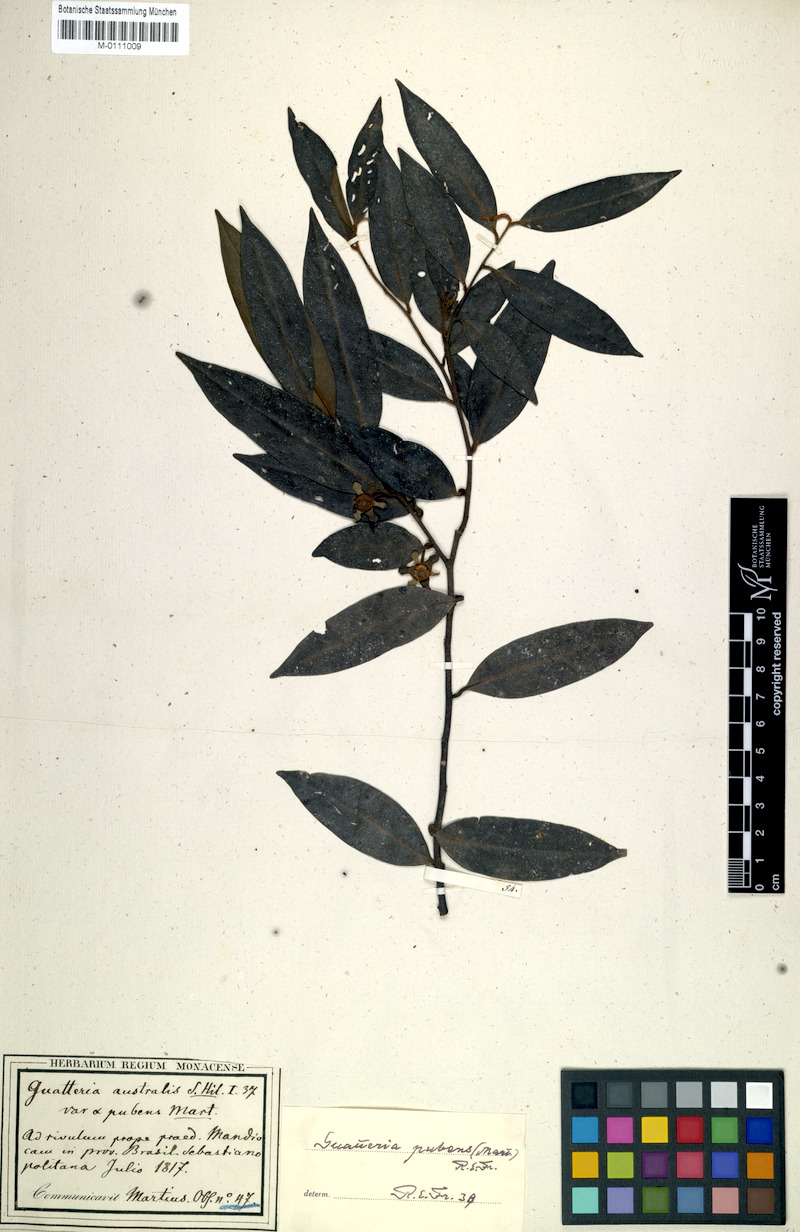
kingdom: Plantae
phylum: Tracheophyta
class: Magnoliopsida
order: Magnoliales
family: Annonaceae
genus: Guatteria
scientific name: Guatteria sellowiana
